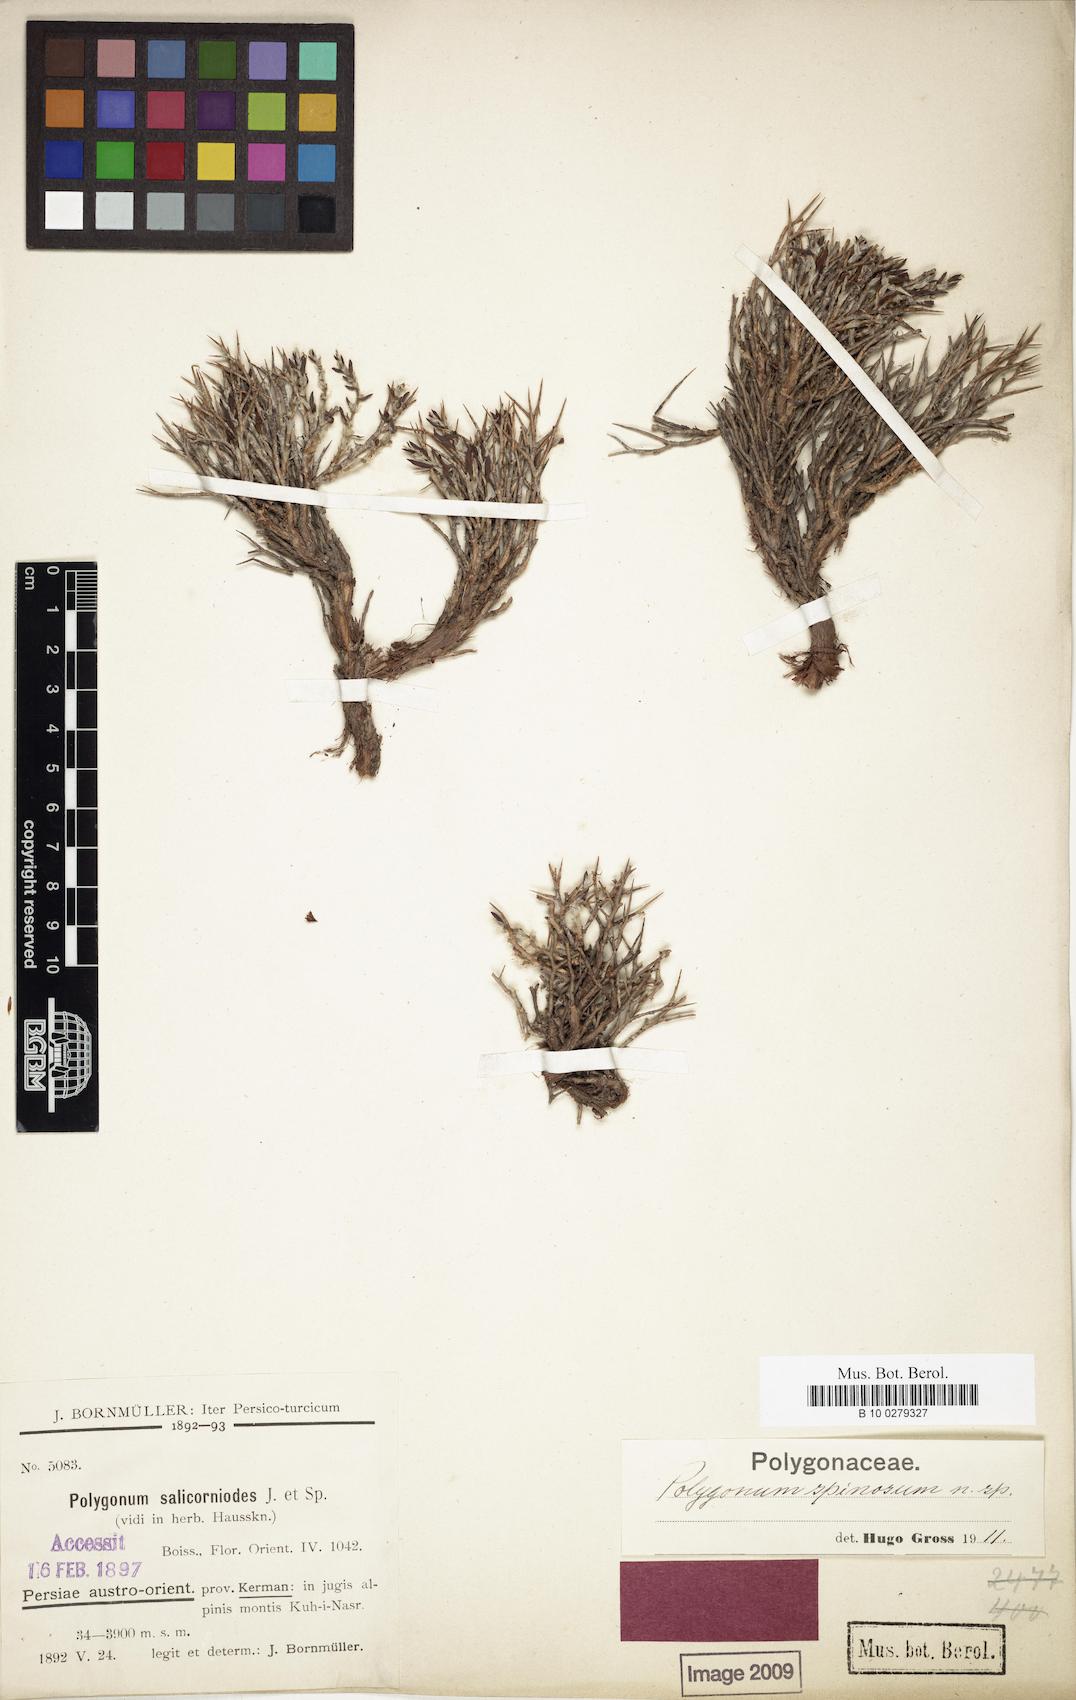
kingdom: Plantae
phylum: Tracheophyta
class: Magnoliopsida
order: Caryophyllales
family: Polygonaceae
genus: Atraphaxis
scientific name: Atraphaxis kermanica
